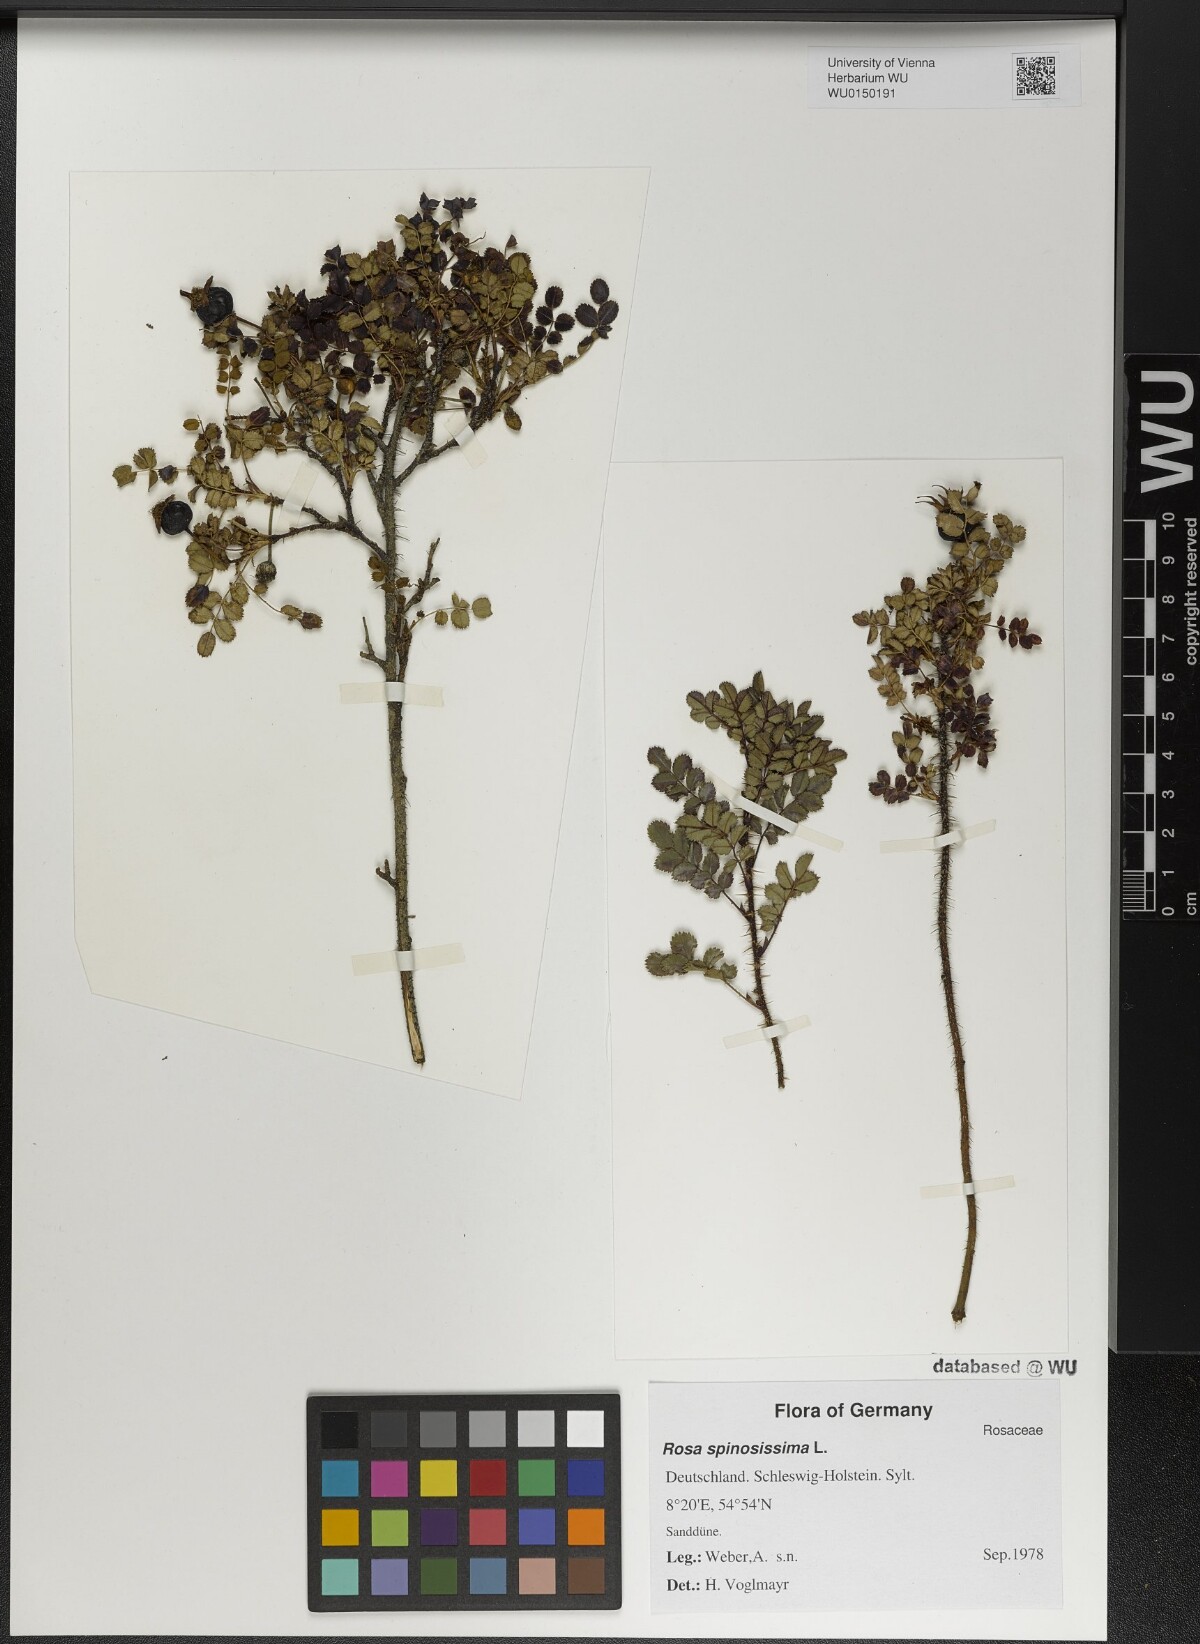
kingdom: Plantae
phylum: Tracheophyta
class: Magnoliopsida
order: Rosales
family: Rosaceae
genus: Rosa
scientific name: Rosa spinosissima
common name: Burnet rose
